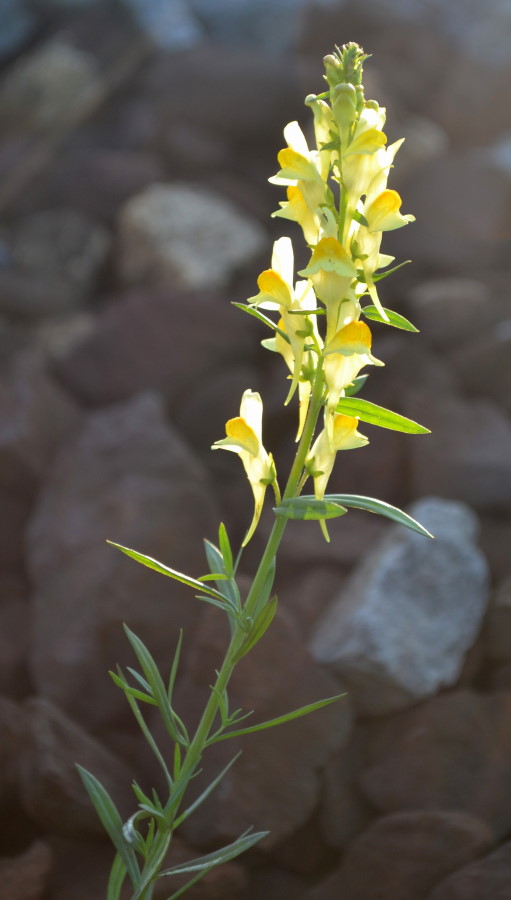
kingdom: Plantae
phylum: Tracheophyta
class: Magnoliopsida
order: Lamiales
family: Plantaginaceae
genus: Linaria
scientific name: Linaria vulgaris
